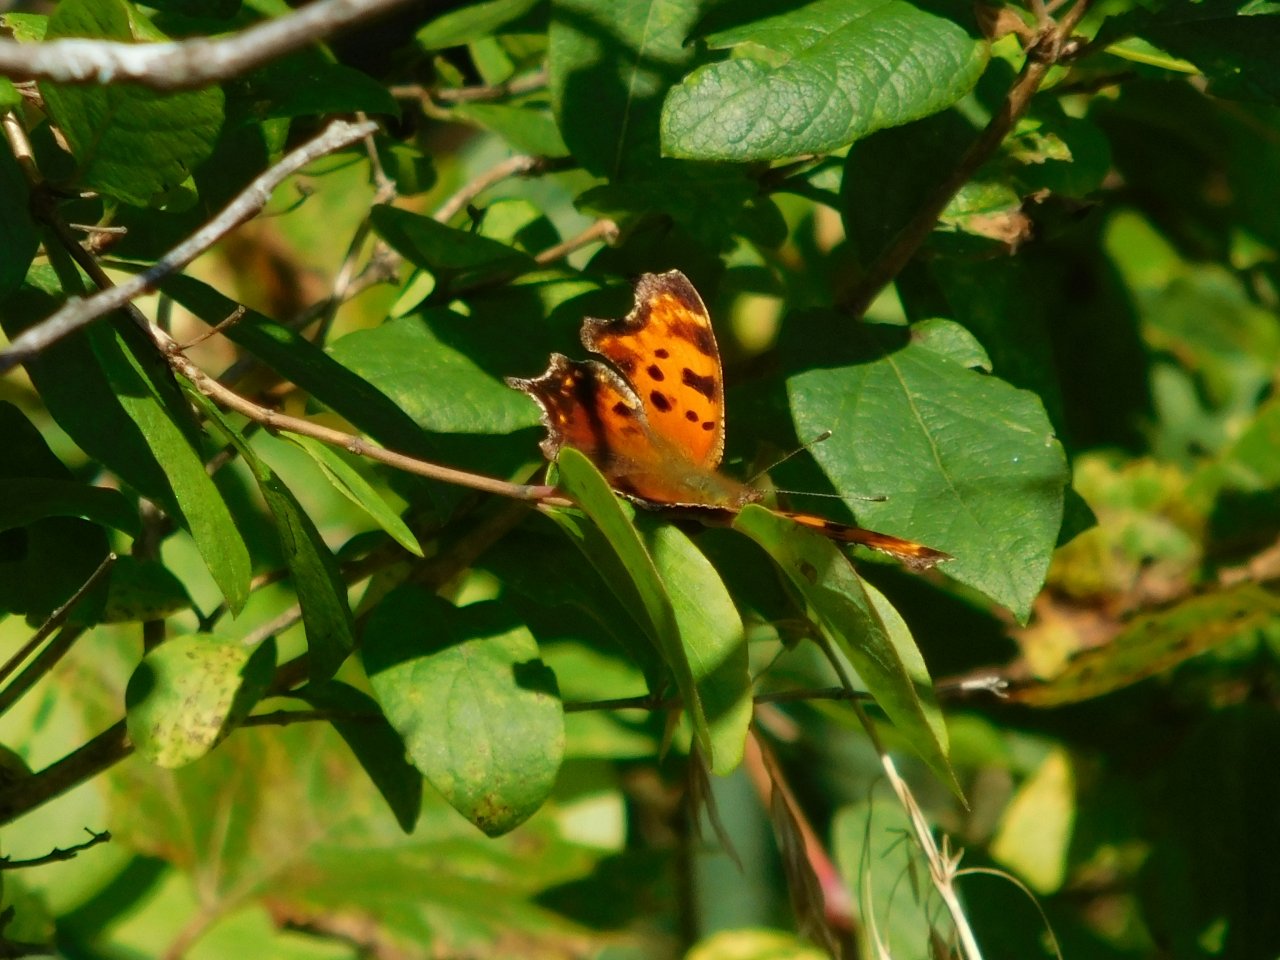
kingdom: Animalia
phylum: Arthropoda
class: Insecta
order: Lepidoptera
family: Nymphalidae
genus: Polygonia
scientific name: Polygonia comma
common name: Eastern Comma
